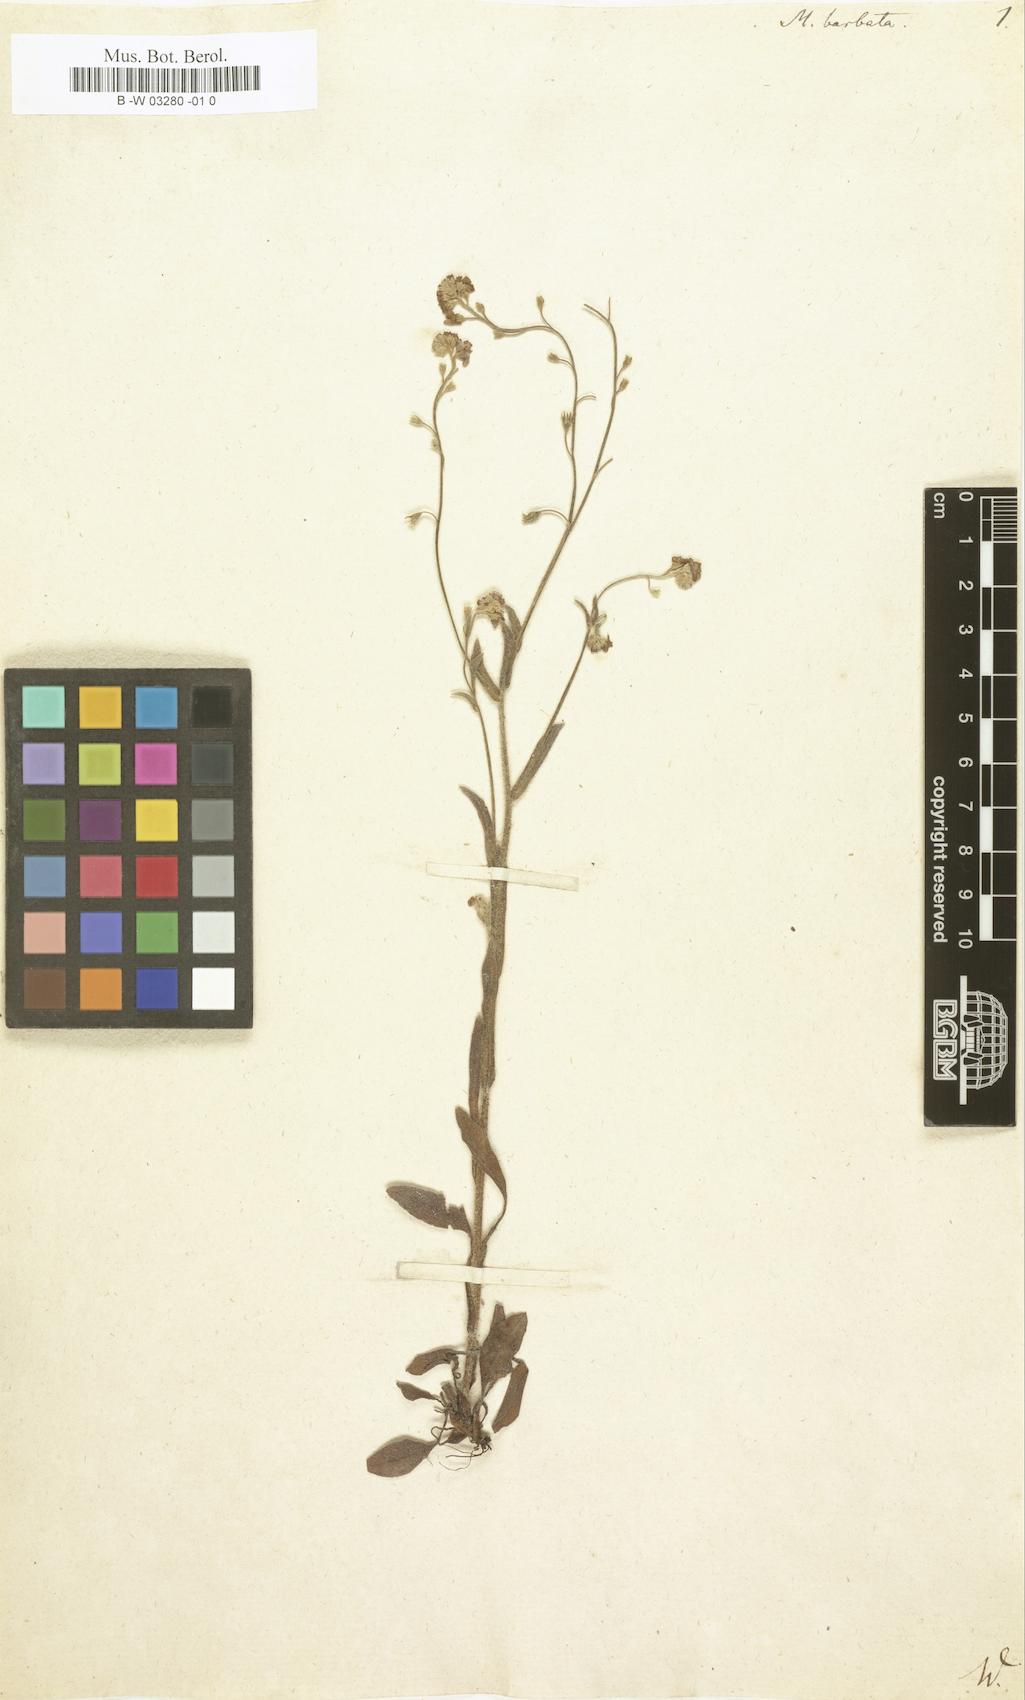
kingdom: Plantae
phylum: Tracheophyta
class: Magnoliopsida
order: Boraginales
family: Boraginaceae
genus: Lappula
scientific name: Lappula barbata
